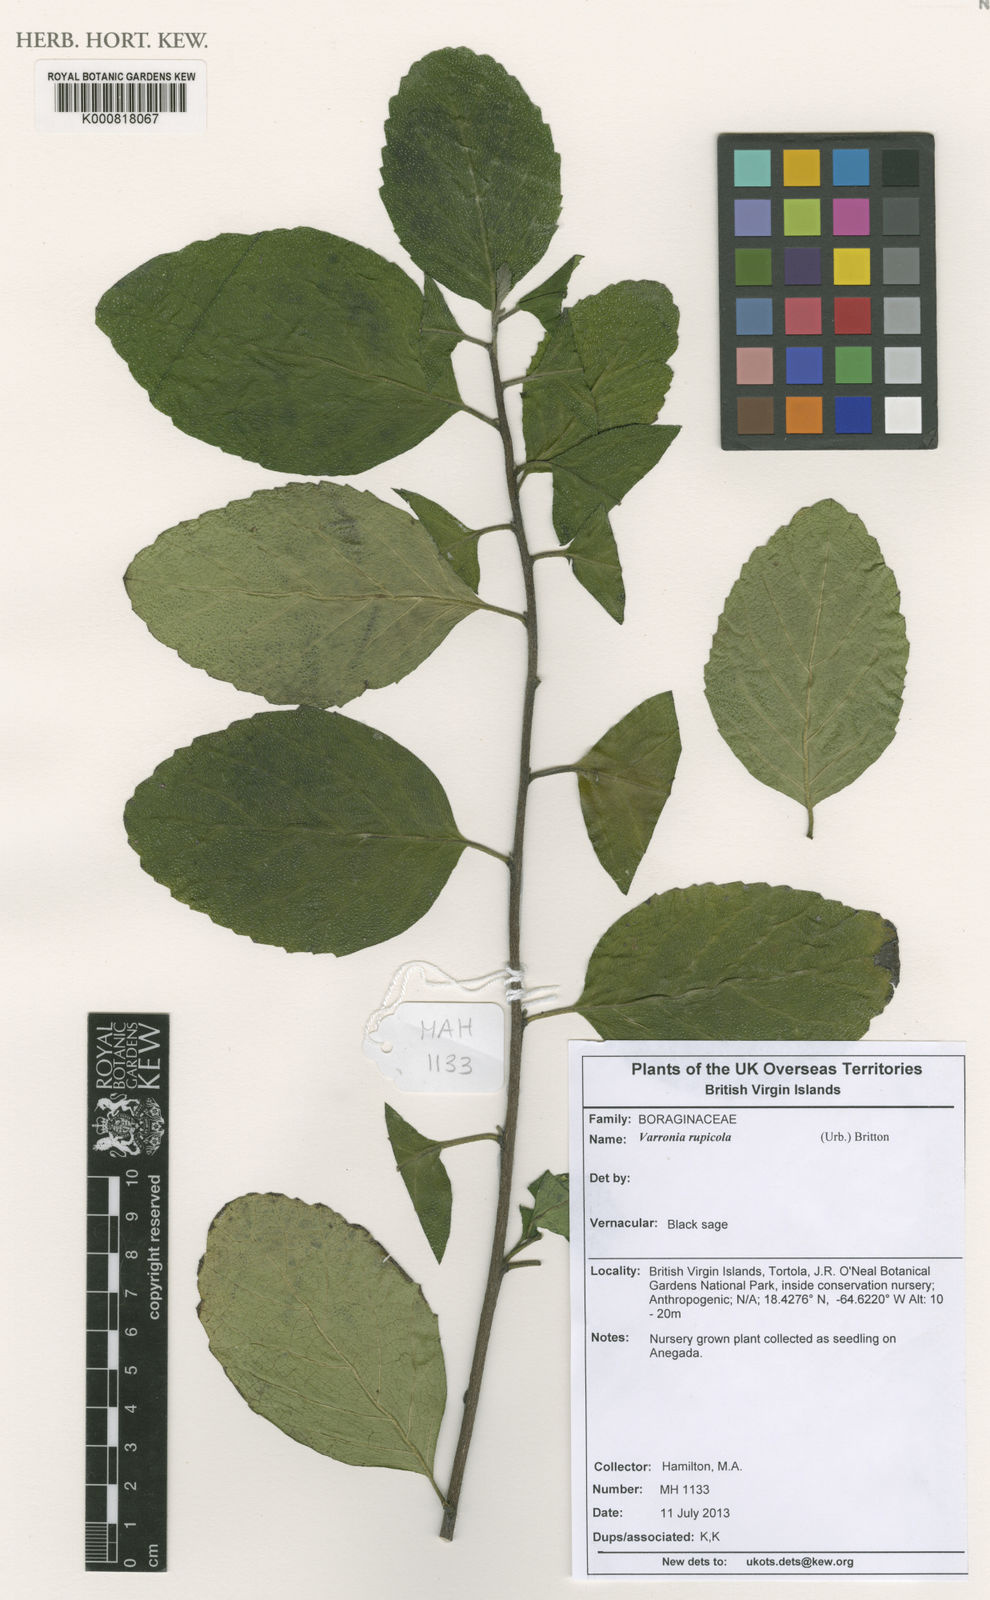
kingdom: Plantae
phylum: Tracheophyta
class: Magnoliopsida
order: Boraginales
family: Cordiaceae
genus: Varronia
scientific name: Varronia rupicola
